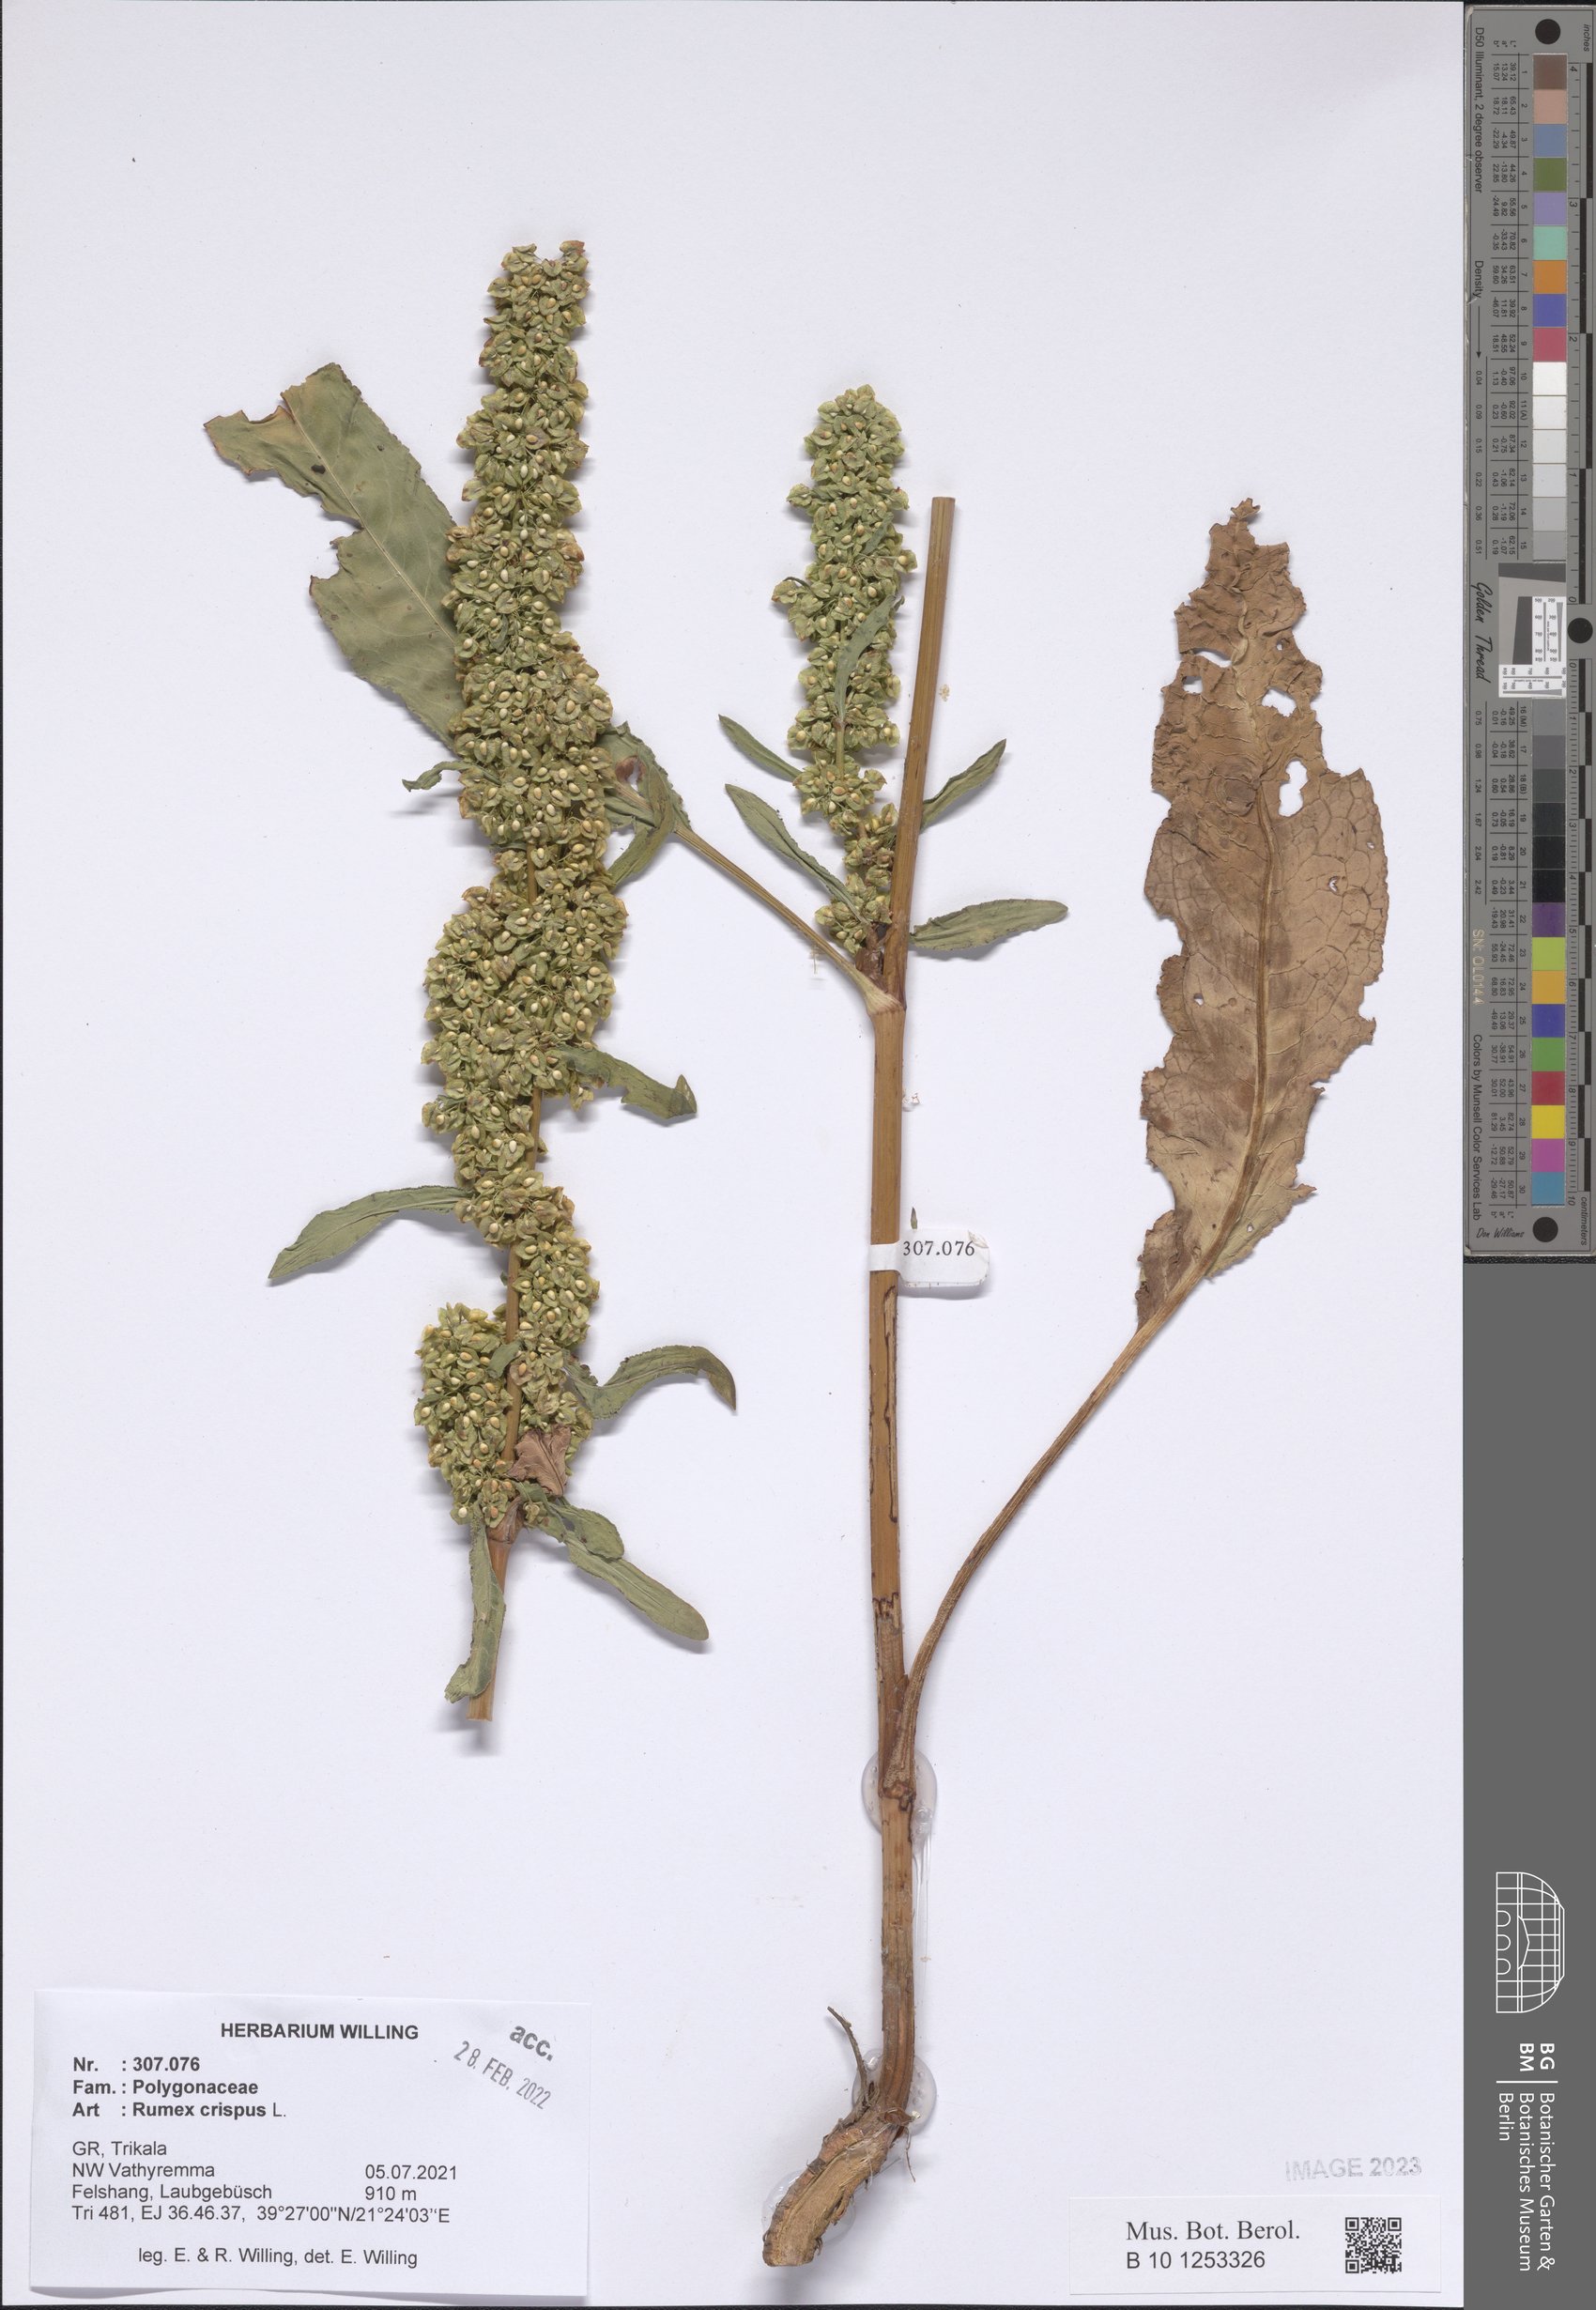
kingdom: Plantae
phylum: Tracheophyta
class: Magnoliopsida
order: Caryophyllales
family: Polygonaceae
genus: Rumex
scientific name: Rumex crispus
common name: Curled dock
